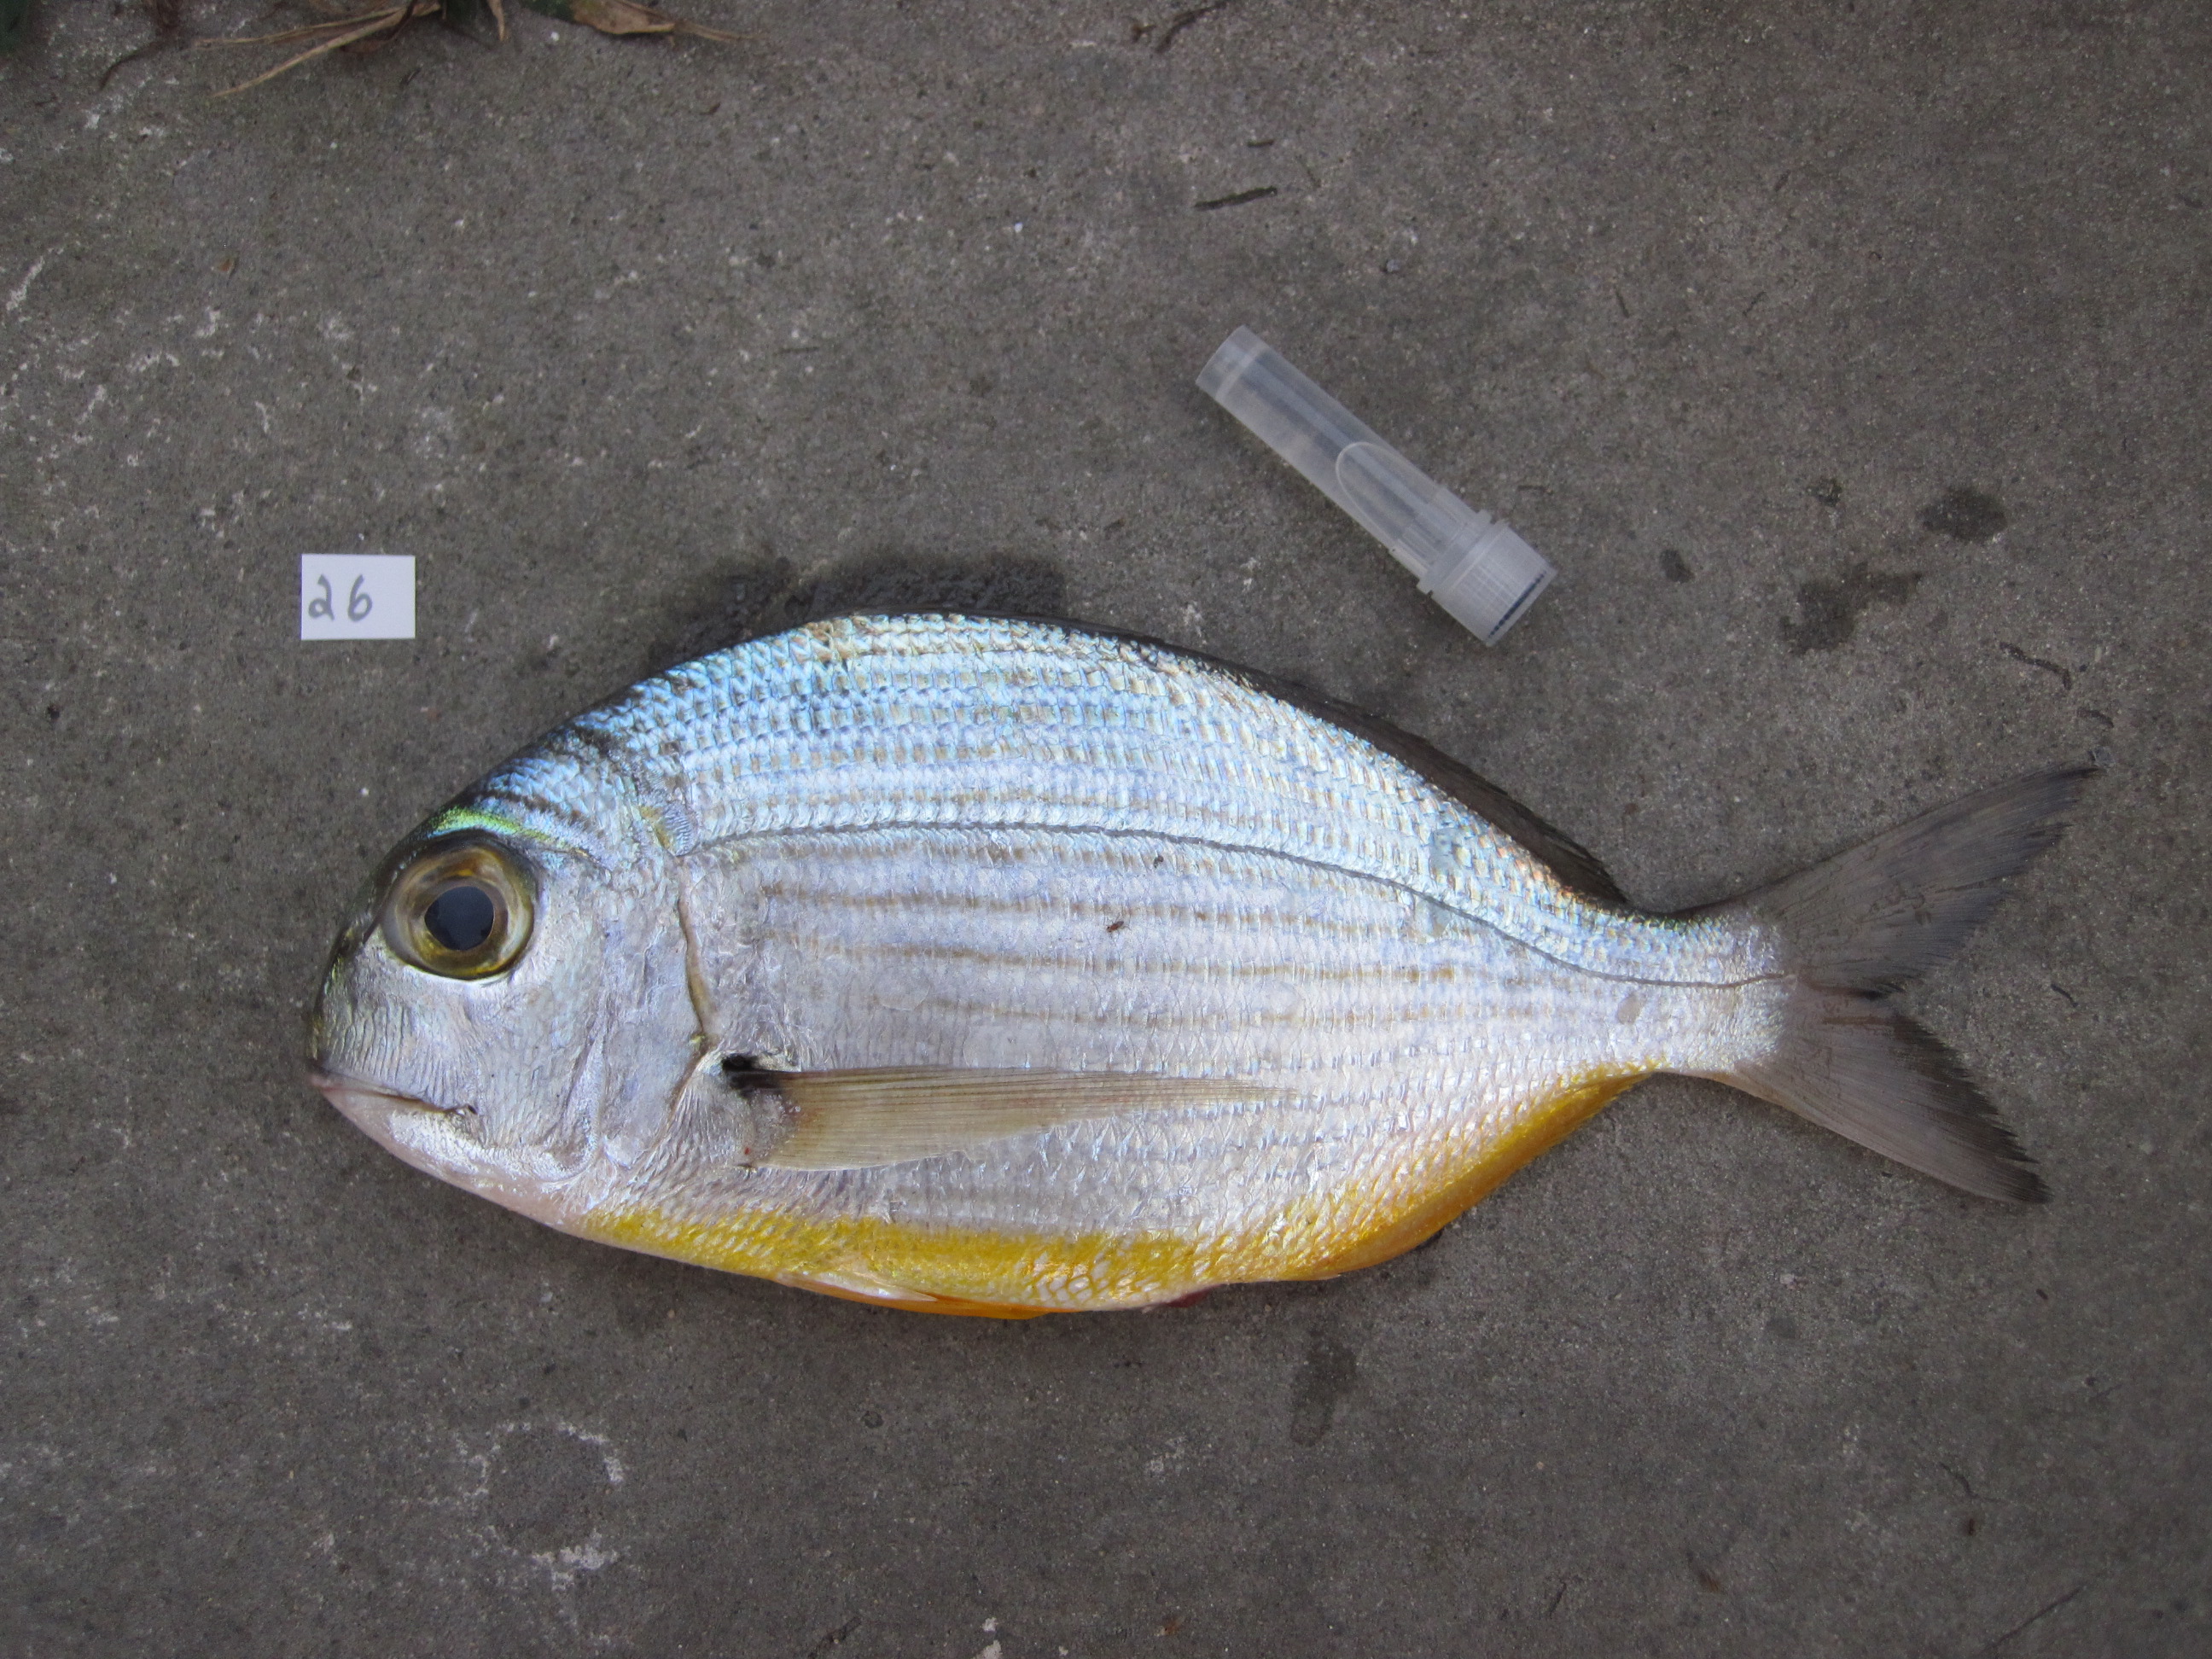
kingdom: Animalia
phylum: Chordata
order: Perciformes
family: Sparidae
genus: Rhabdosargus
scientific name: Rhabdosargus thorpei
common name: Bigeye stumpnose
